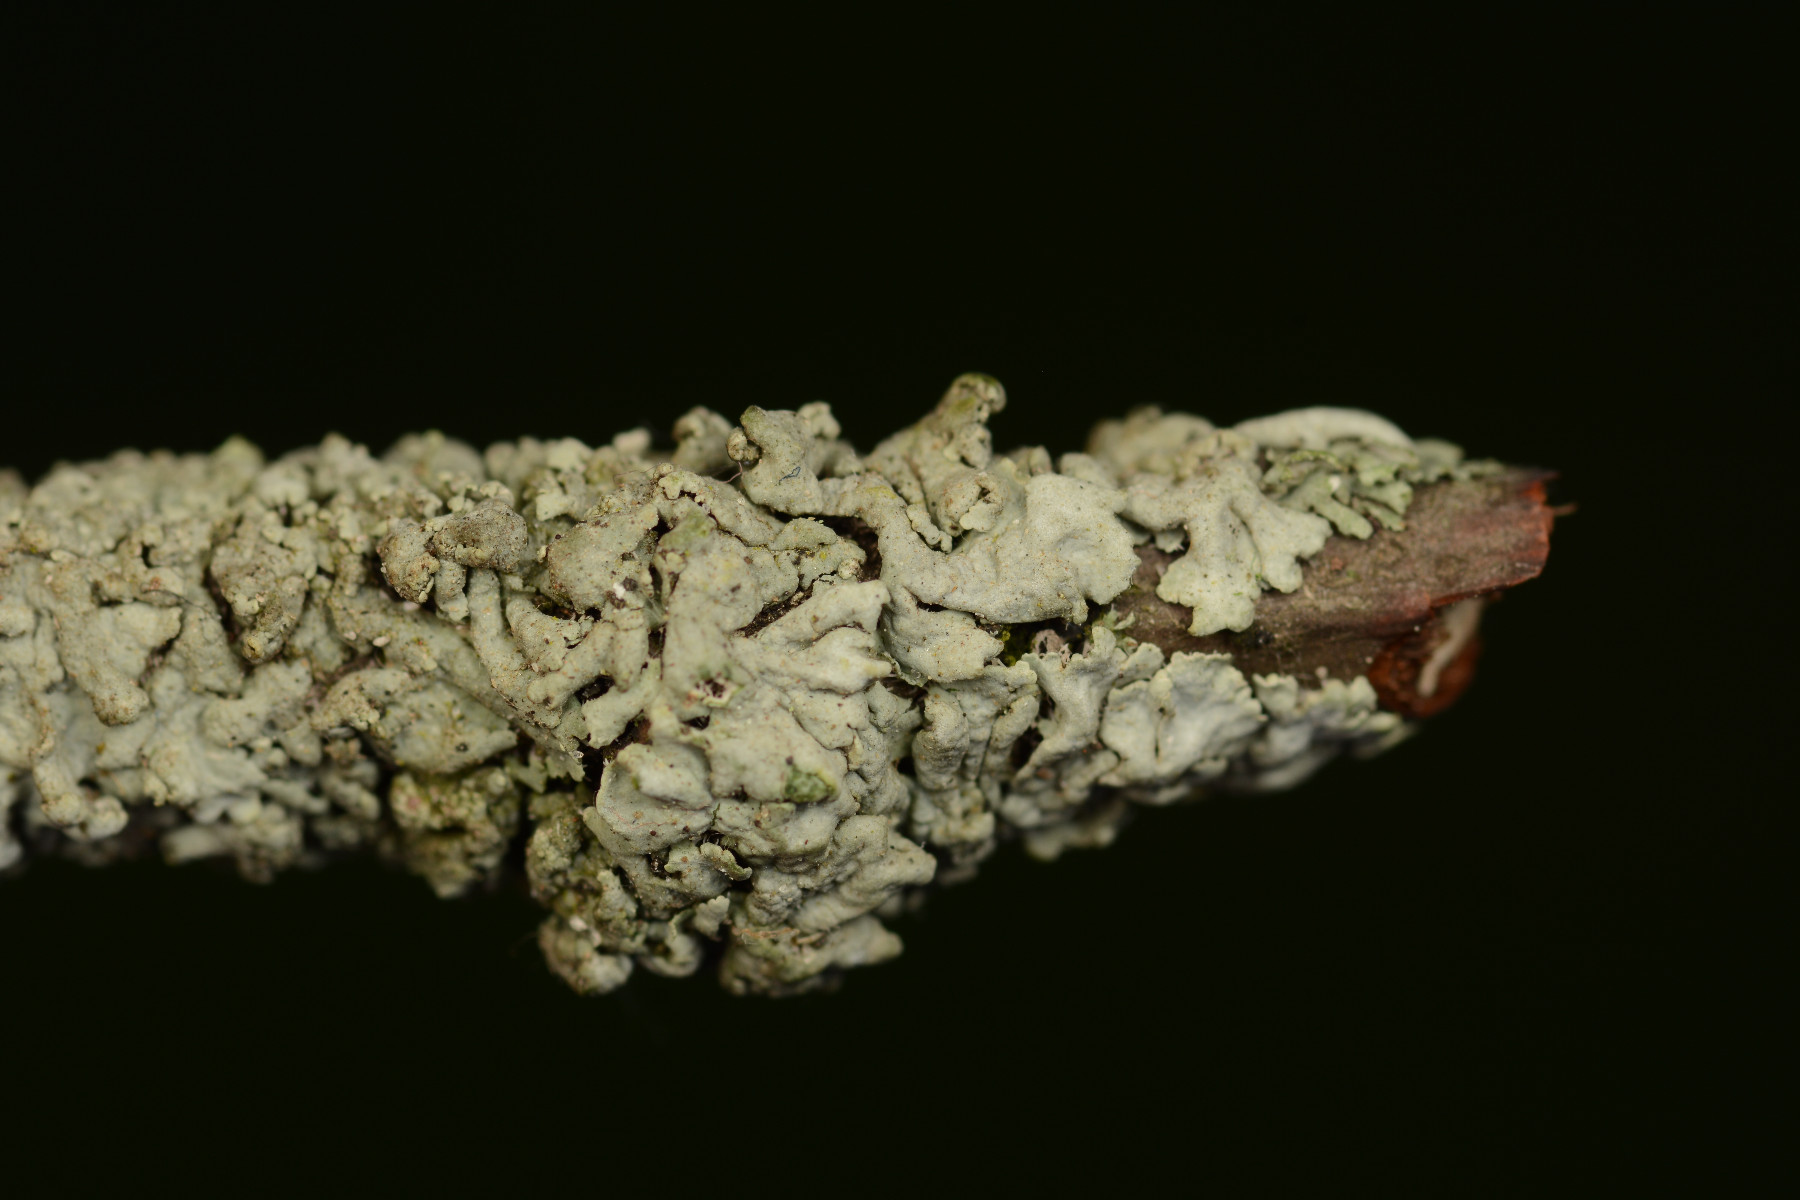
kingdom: Fungi
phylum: Ascomycota
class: Lecanoromycetes
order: Caliciales
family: Physciaceae
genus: Physcia
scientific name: Physcia stellaris
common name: stjerneformet rosetlav
